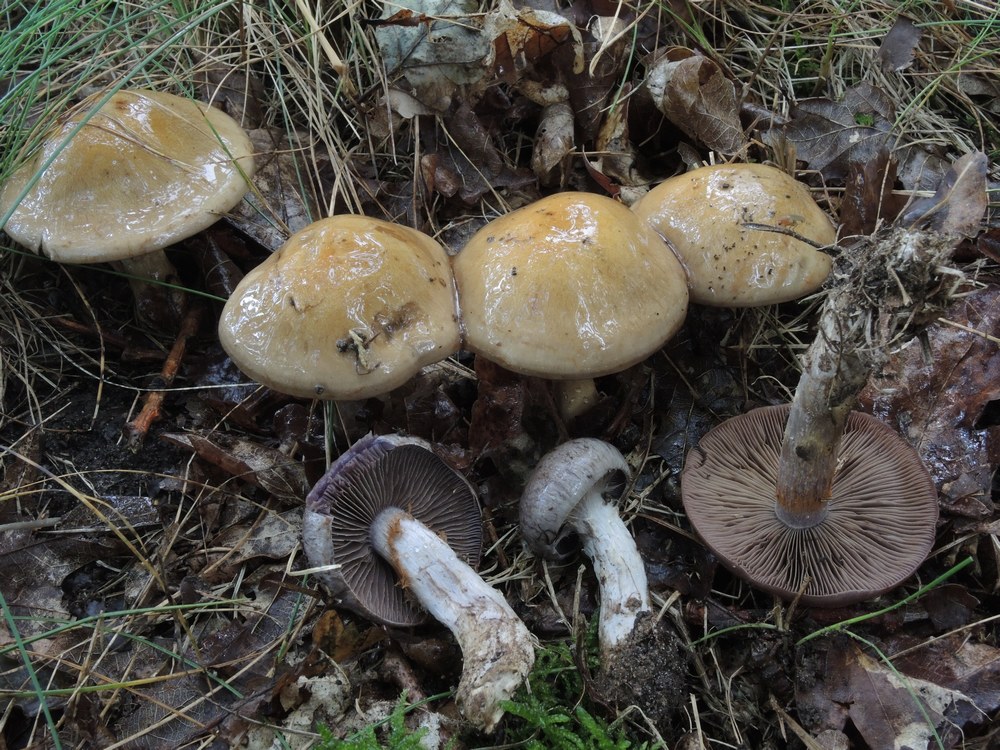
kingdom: Fungi
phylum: Basidiomycota
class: Agaricomycetes
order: Agaricales
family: Cortinariaceae
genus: Cortinarius
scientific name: Cortinarius
